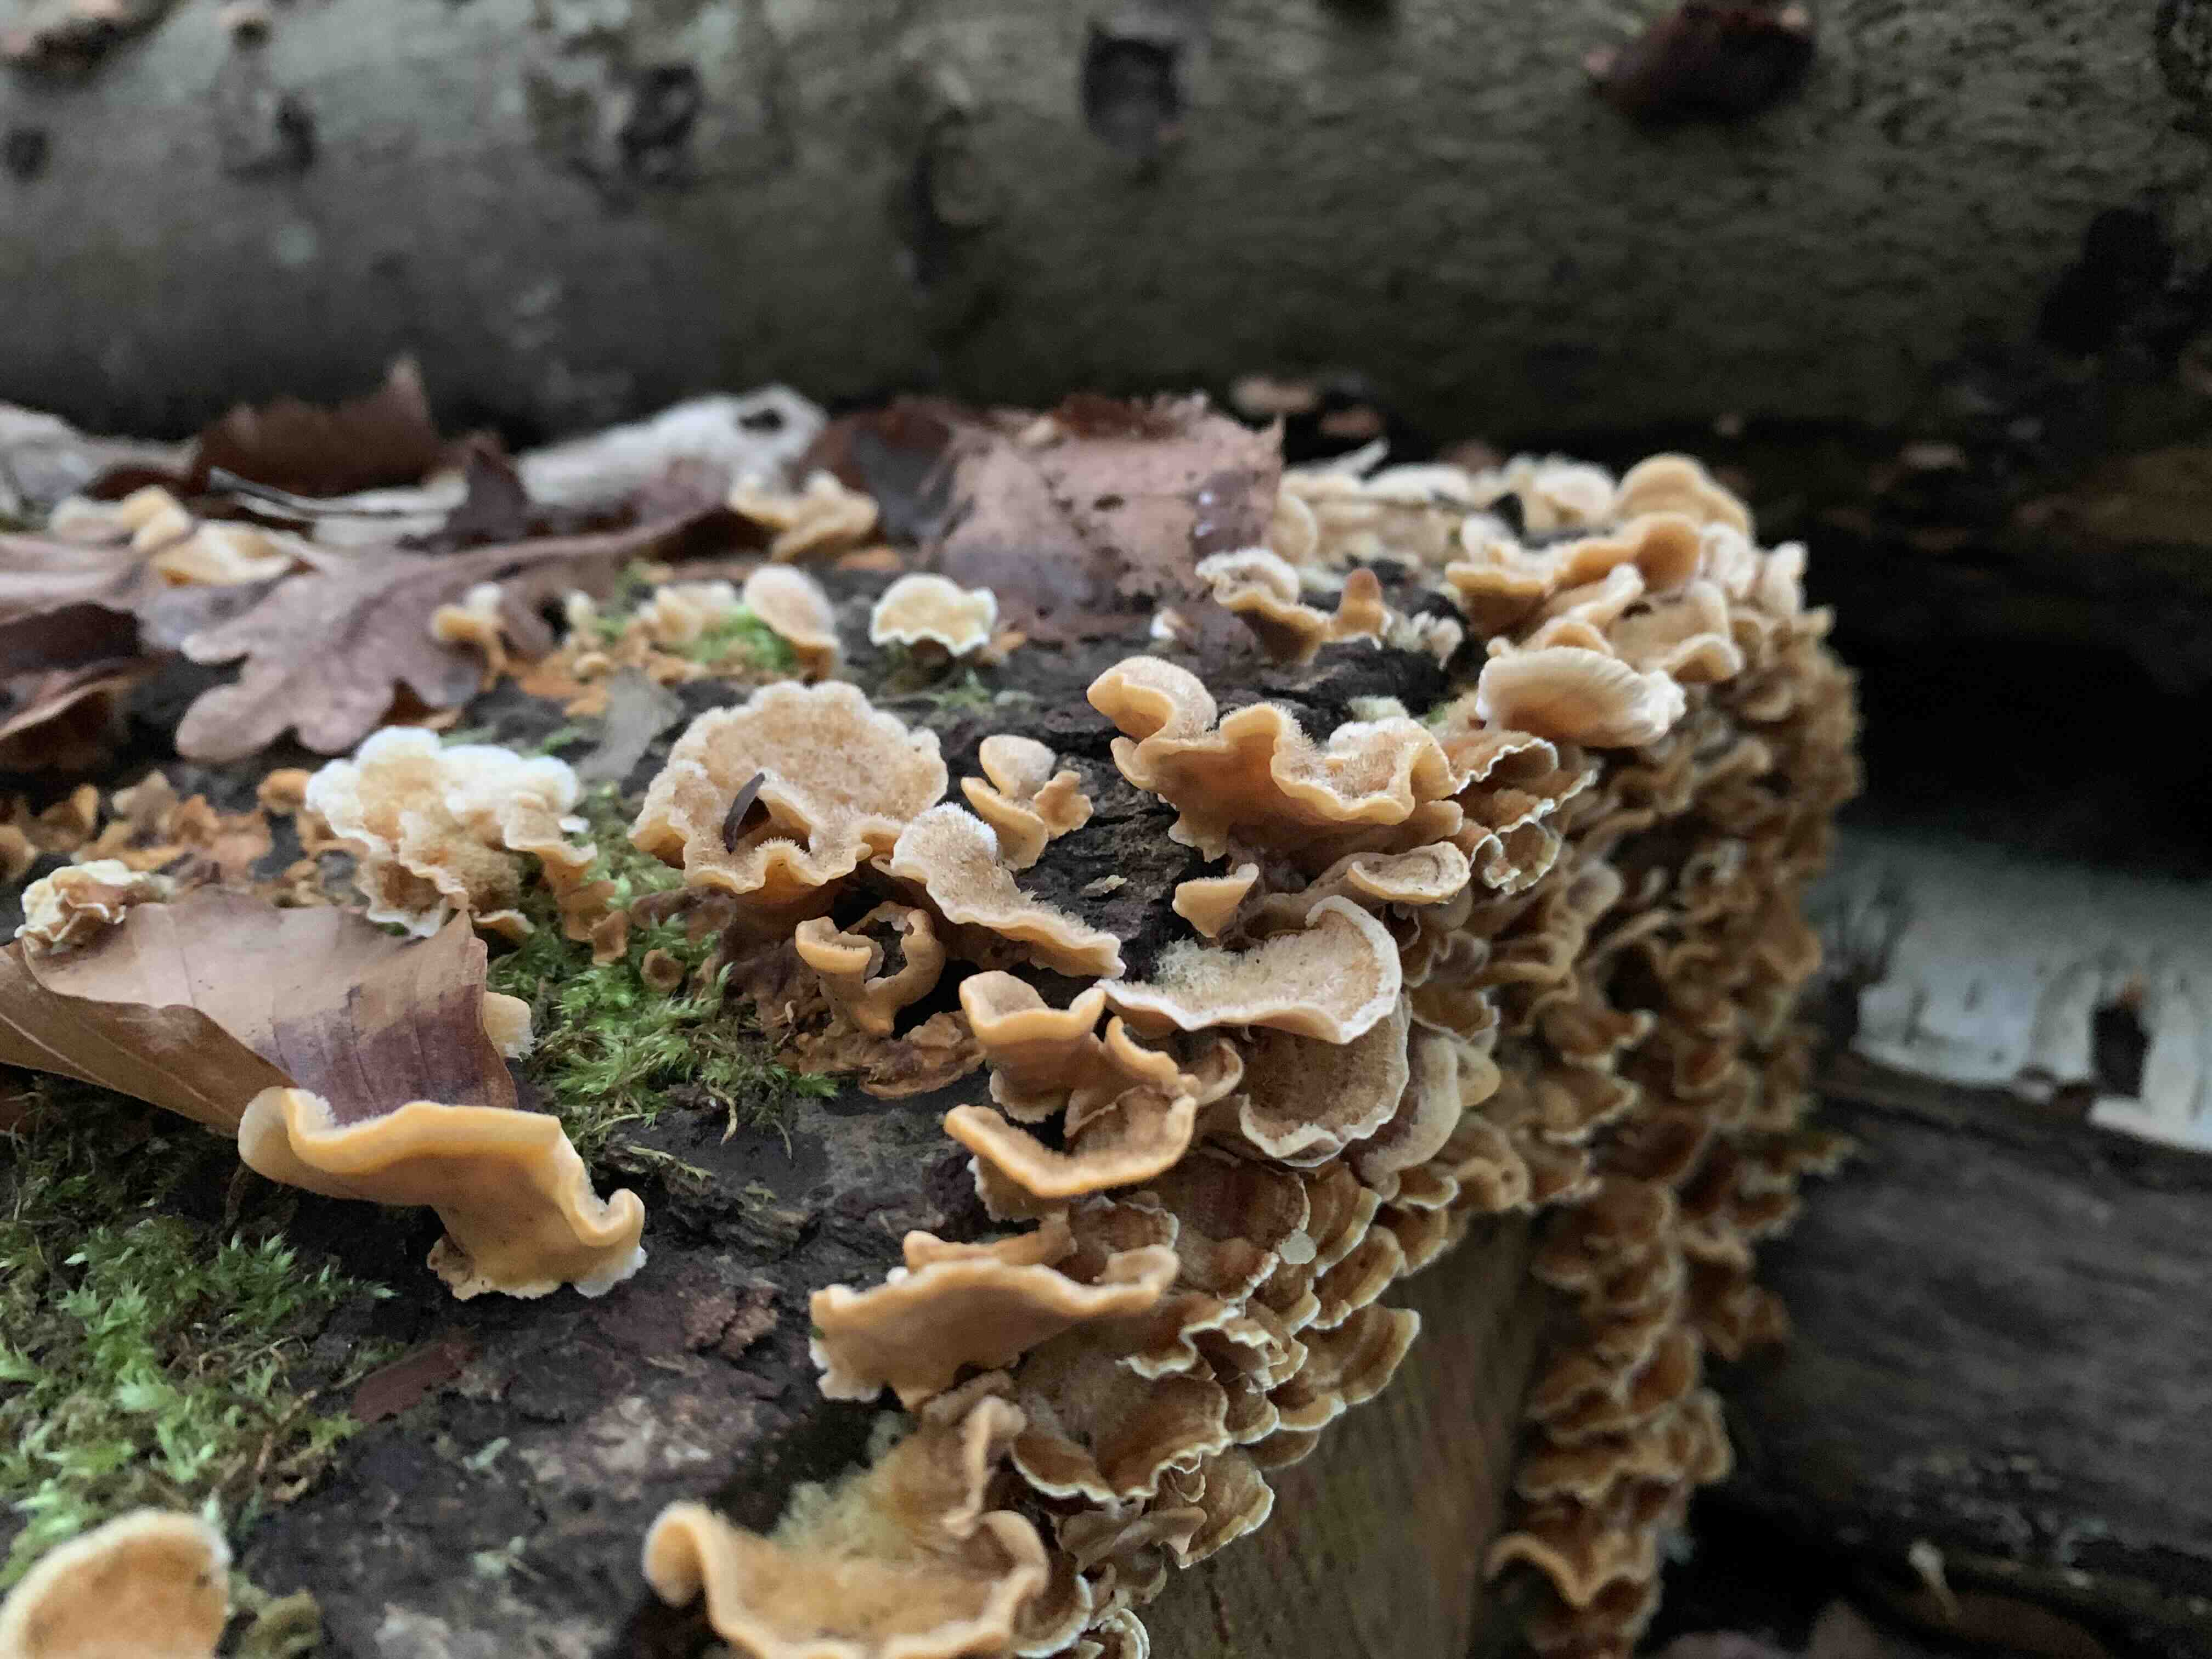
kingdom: Fungi
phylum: Basidiomycota
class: Agaricomycetes
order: Russulales
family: Stereaceae
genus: Stereum
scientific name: Stereum hirsutum
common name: håret lædersvamp
